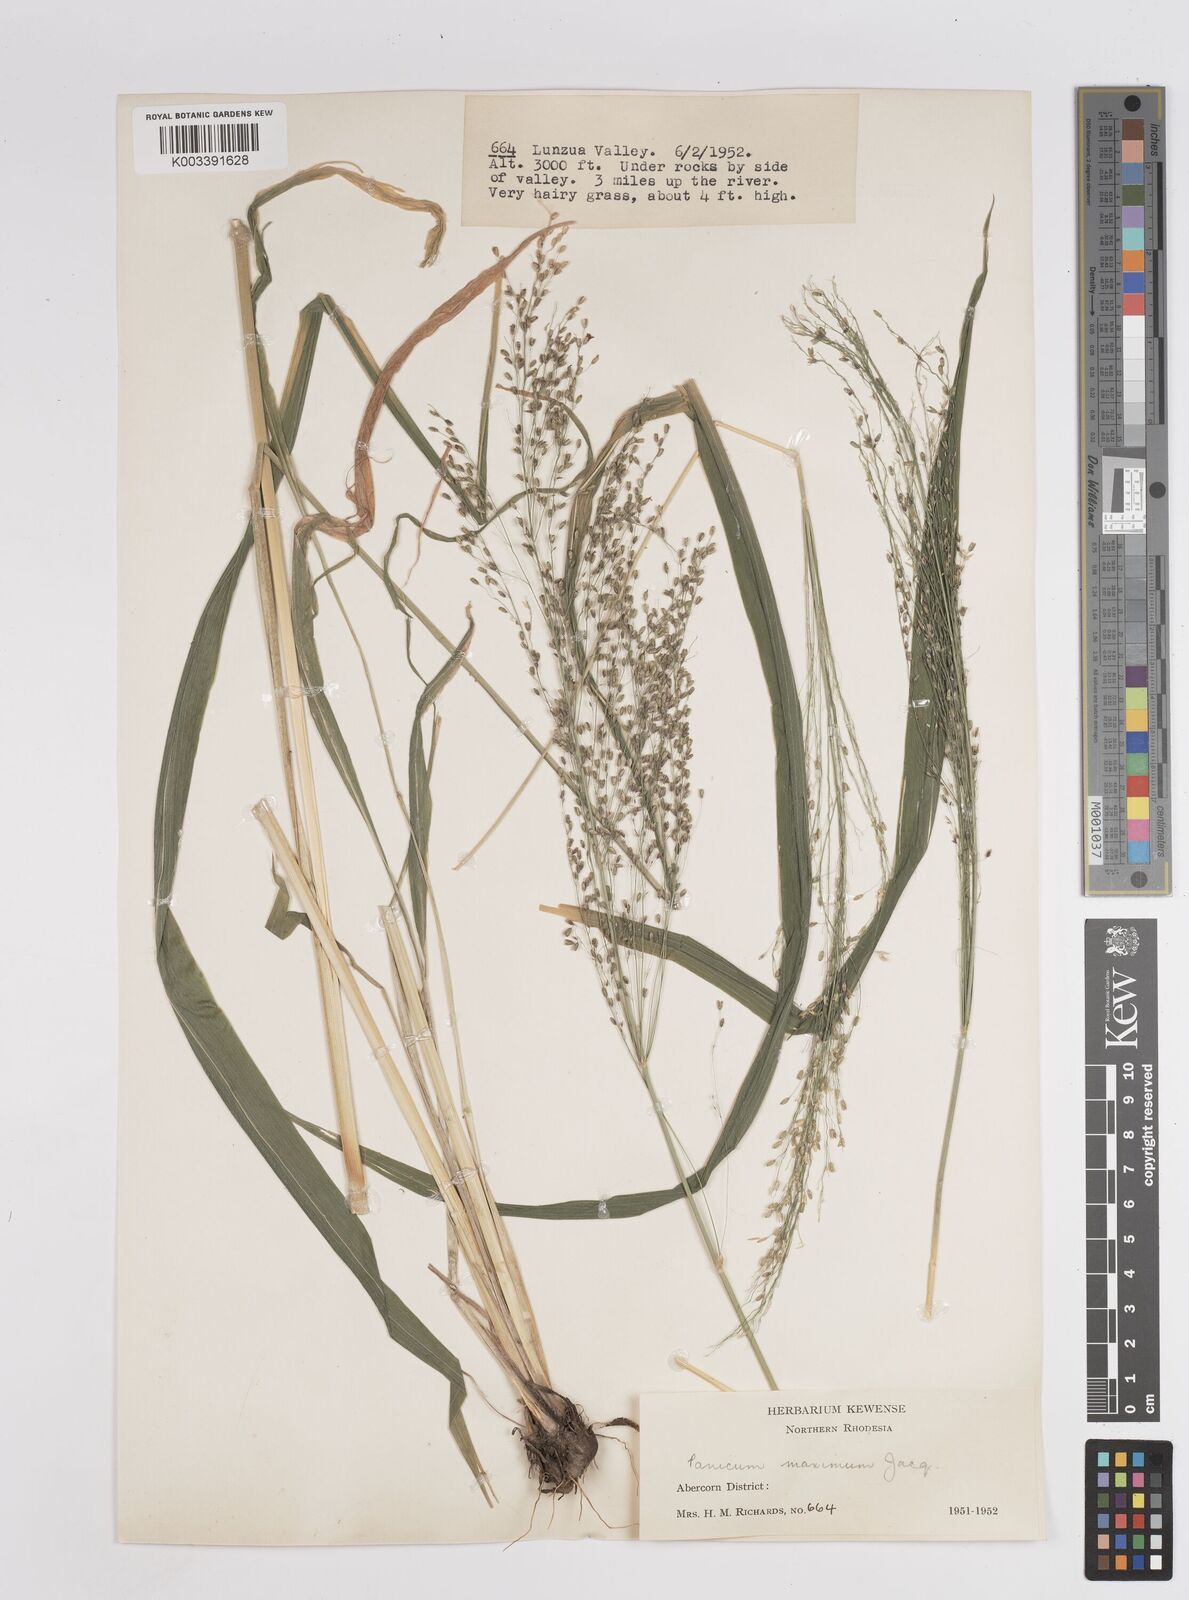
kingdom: Plantae
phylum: Tracheophyta
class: Liliopsida
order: Poales
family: Poaceae
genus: Megathyrsus
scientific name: Megathyrsus maximus
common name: Guineagrass
